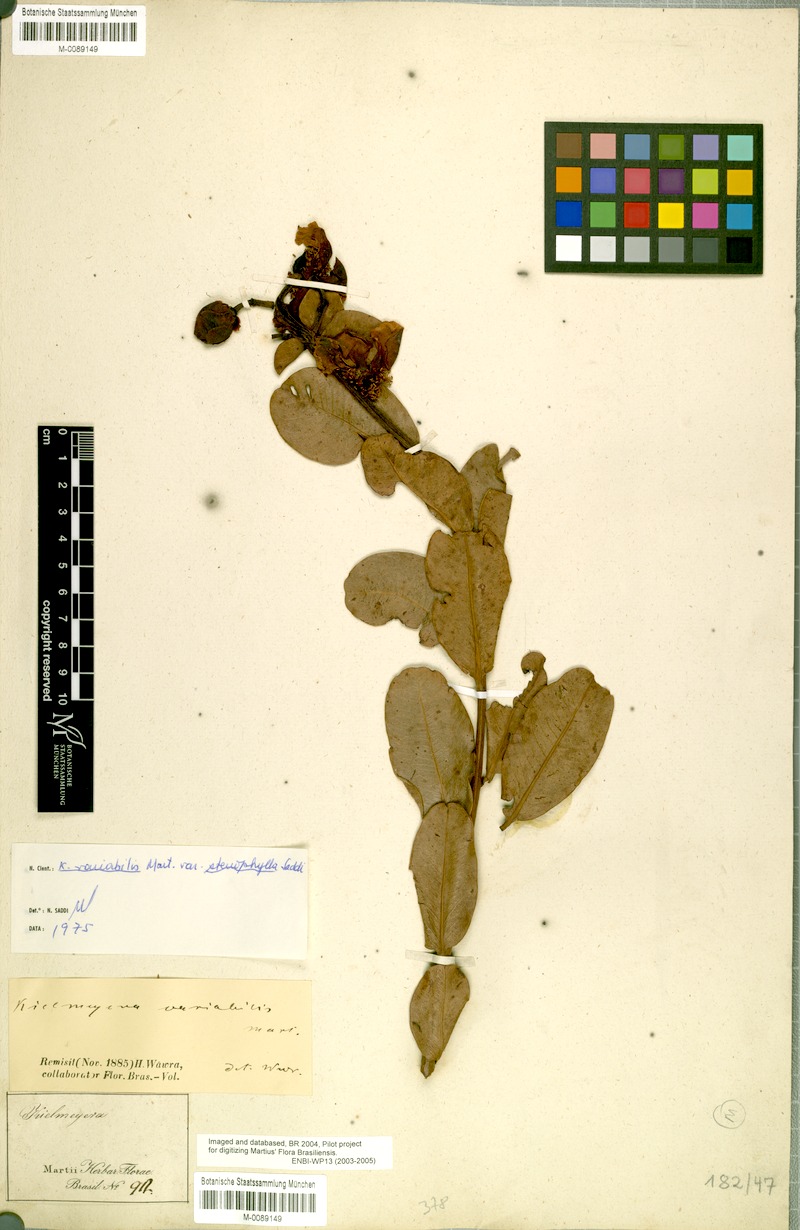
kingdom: Plantae
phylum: Tracheophyta
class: Magnoliopsida
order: Malpighiales
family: Calophyllaceae
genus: Kielmeyera
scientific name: Kielmeyera variabilis
